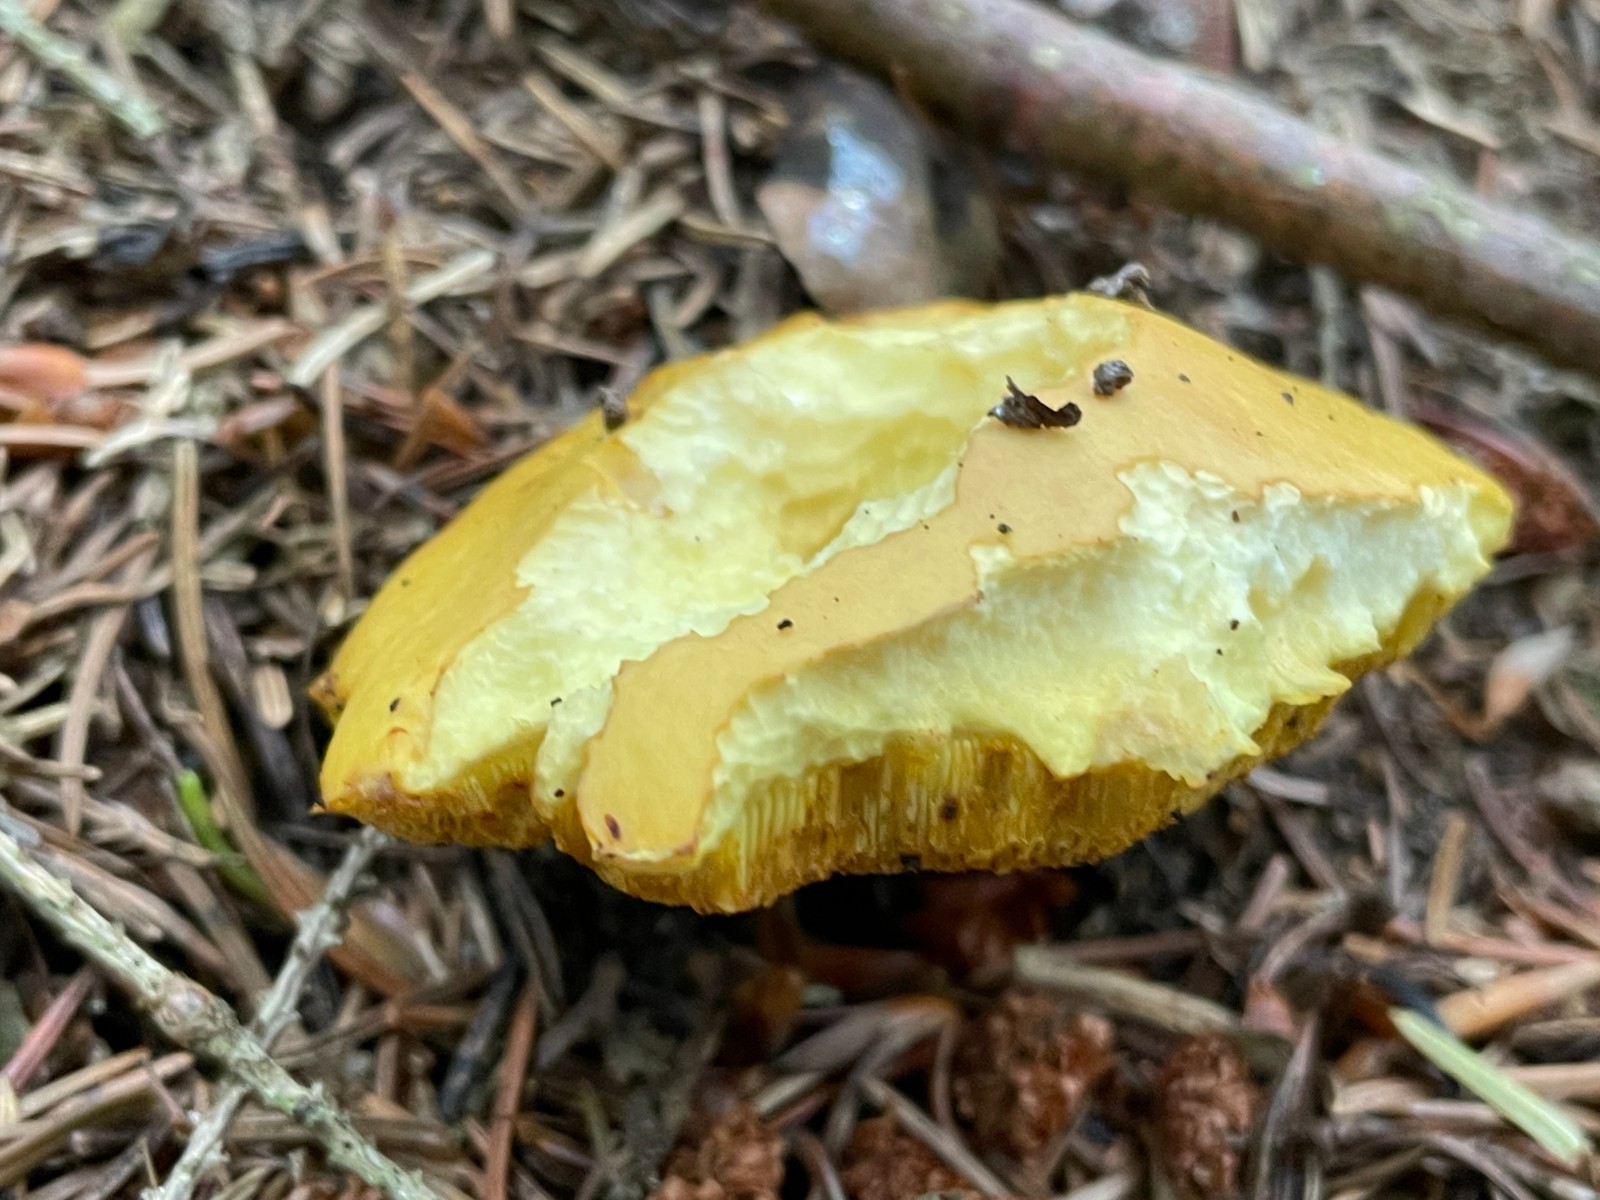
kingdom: Fungi
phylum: Basidiomycota
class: Agaricomycetes
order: Boletales
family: Suillaceae
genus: Suillus
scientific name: Suillus grevillei
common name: lærke-slimrørhat
